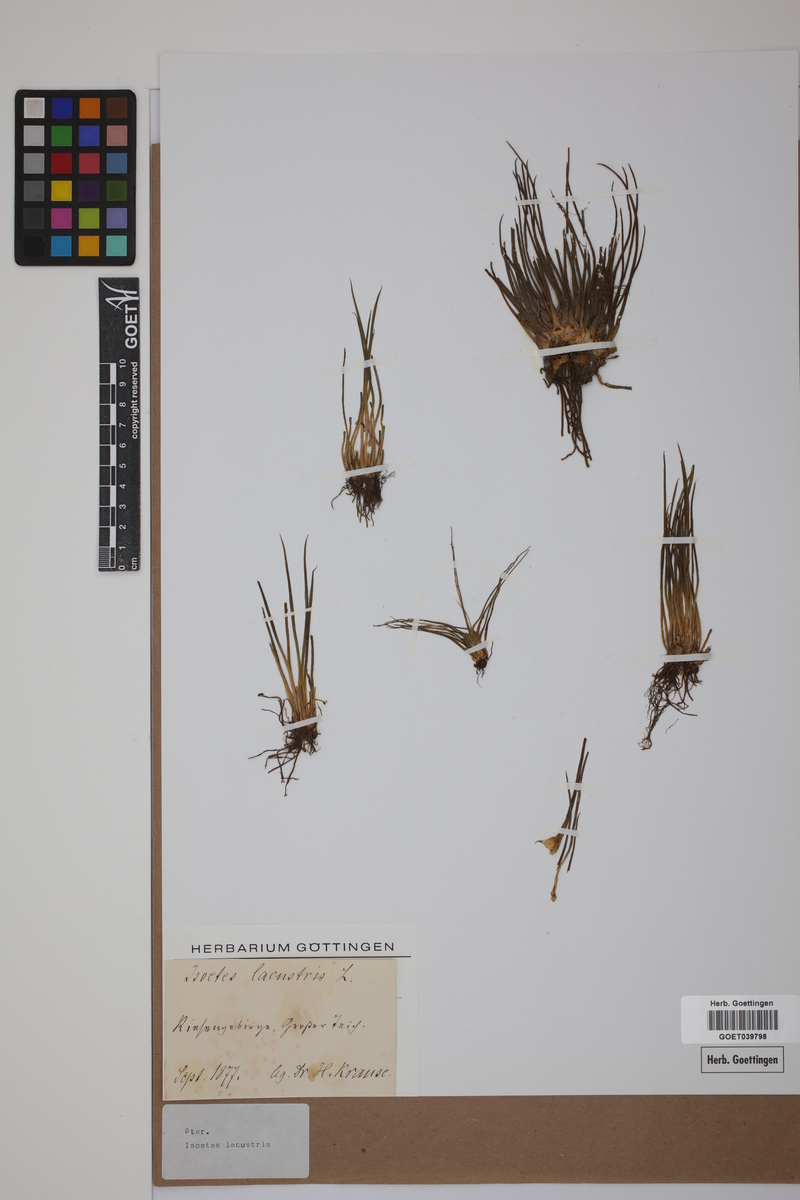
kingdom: Plantae
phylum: Tracheophyta
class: Lycopodiopsida
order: Isoetales
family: Isoetaceae
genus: Isoetes
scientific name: Isoetes lacustris
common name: Common quillwort
